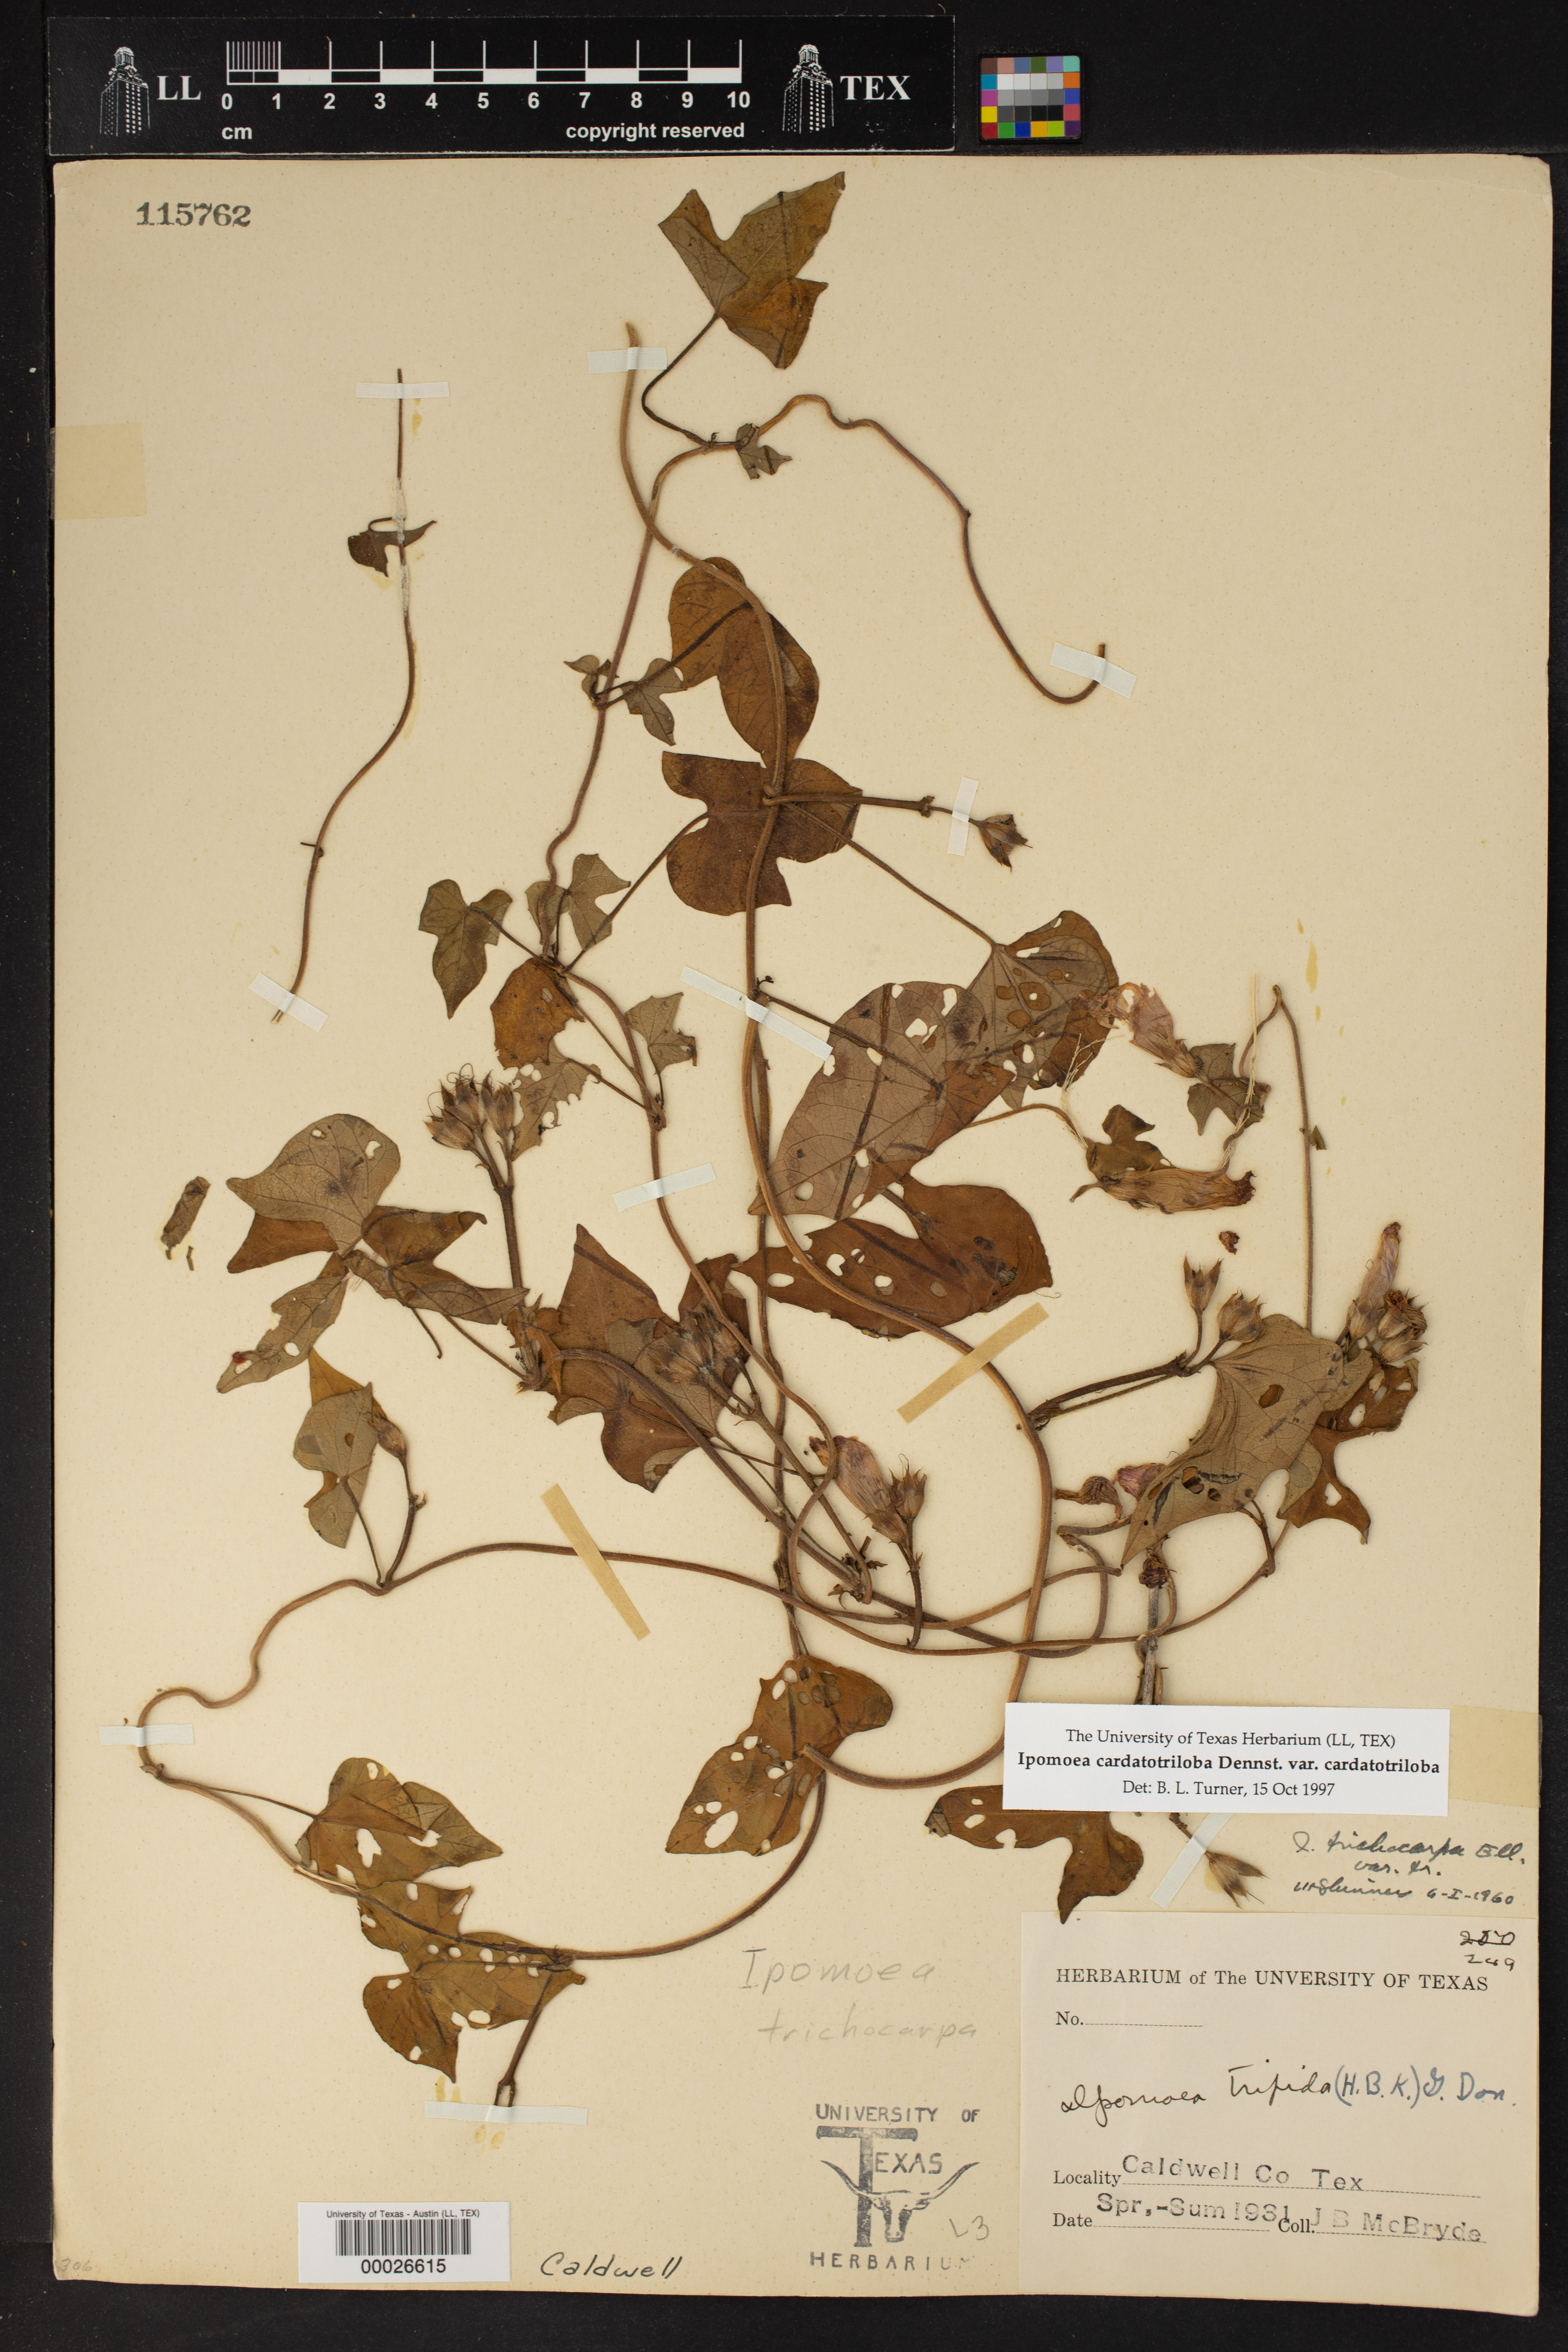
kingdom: Plantae
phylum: Tracheophyta
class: Magnoliopsida
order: Solanales
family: Convolvulaceae
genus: Ipomoea
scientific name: Ipomoea cordatotriloba
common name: Cotton morning glory
